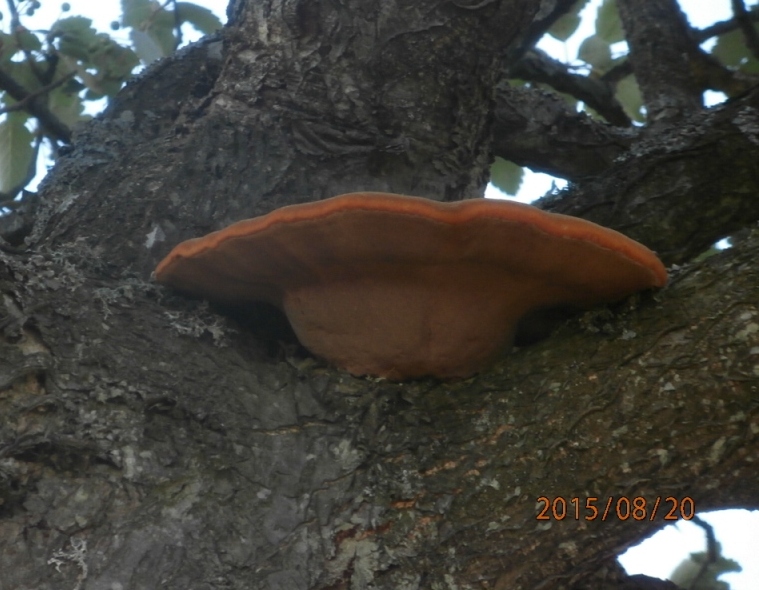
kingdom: Fungi
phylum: Basidiomycota
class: Agaricomycetes
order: Hymenochaetales
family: Hymenochaetaceae
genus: Inonotus
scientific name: Inonotus hispidus
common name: børstehåret spejlporesvamp
